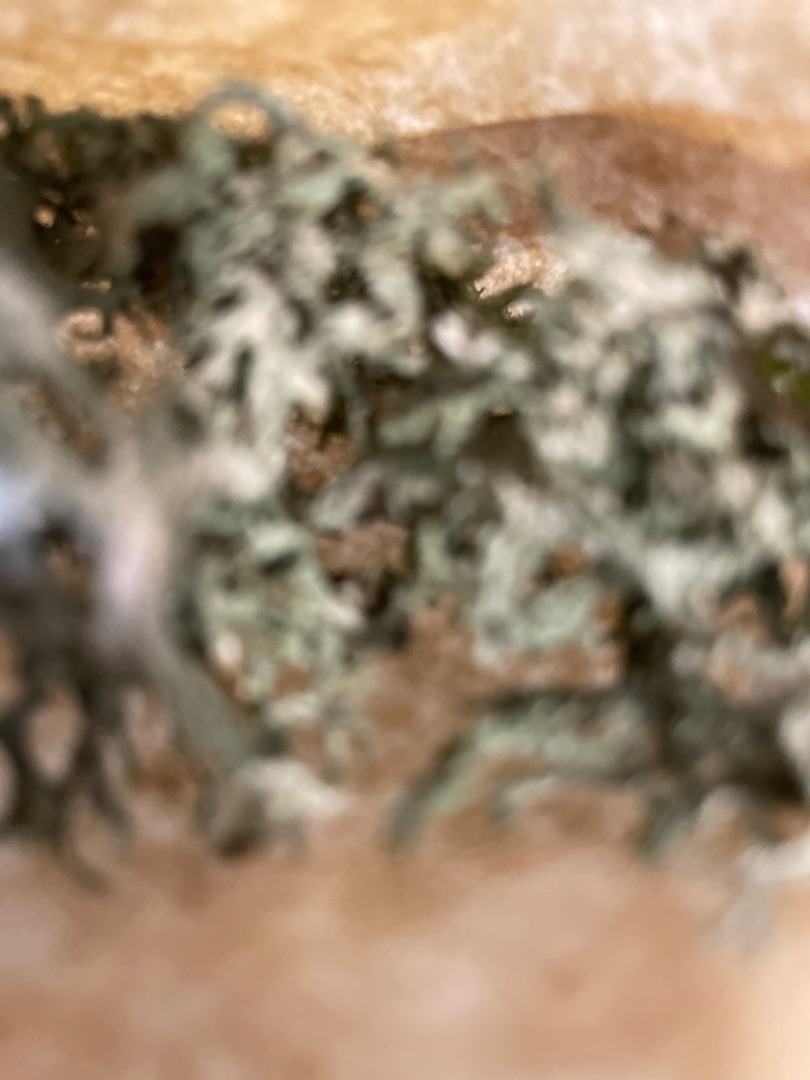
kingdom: Fungi
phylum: Ascomycota
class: Lecanoromycetes
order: Lecanorales
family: Parmeliaceae
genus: Evernia
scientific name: Evernia prunastri
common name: Almindelig slåenlav
